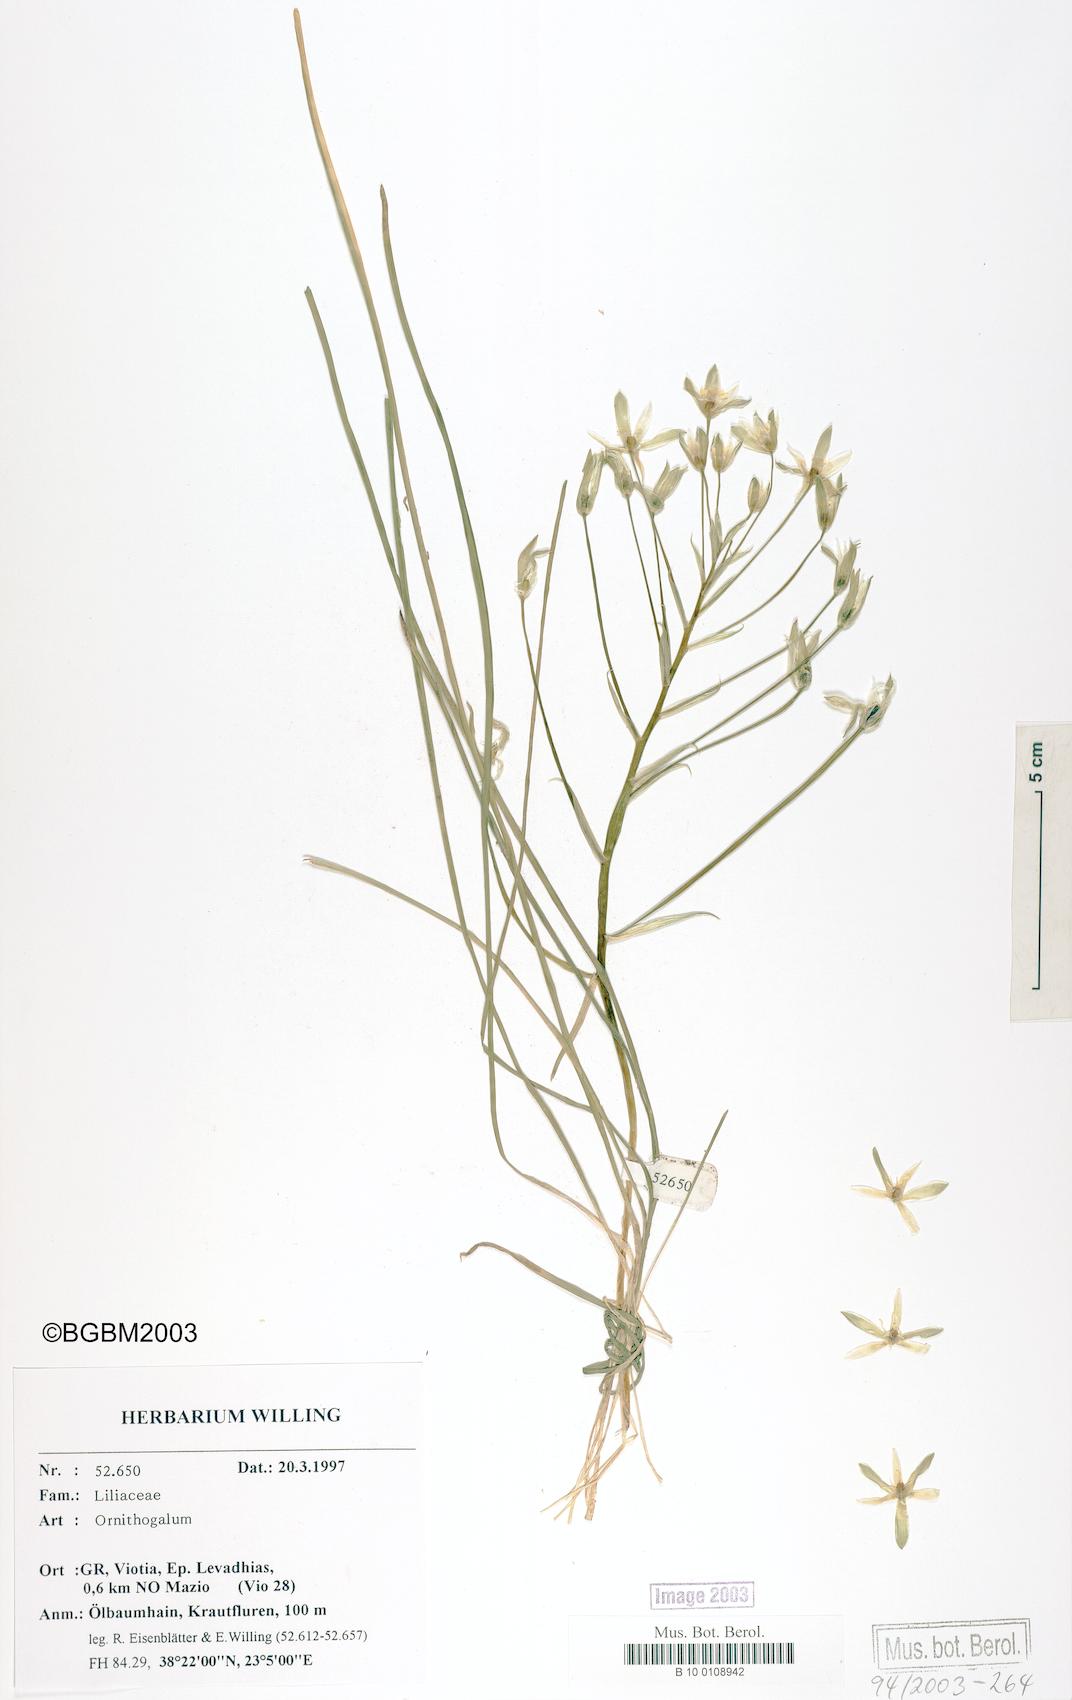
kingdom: Plantae
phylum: Tracheophyta
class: Liliopsida
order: Asparagales
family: Asparagaceae
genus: Ornithogalum
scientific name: Ornithogalum
